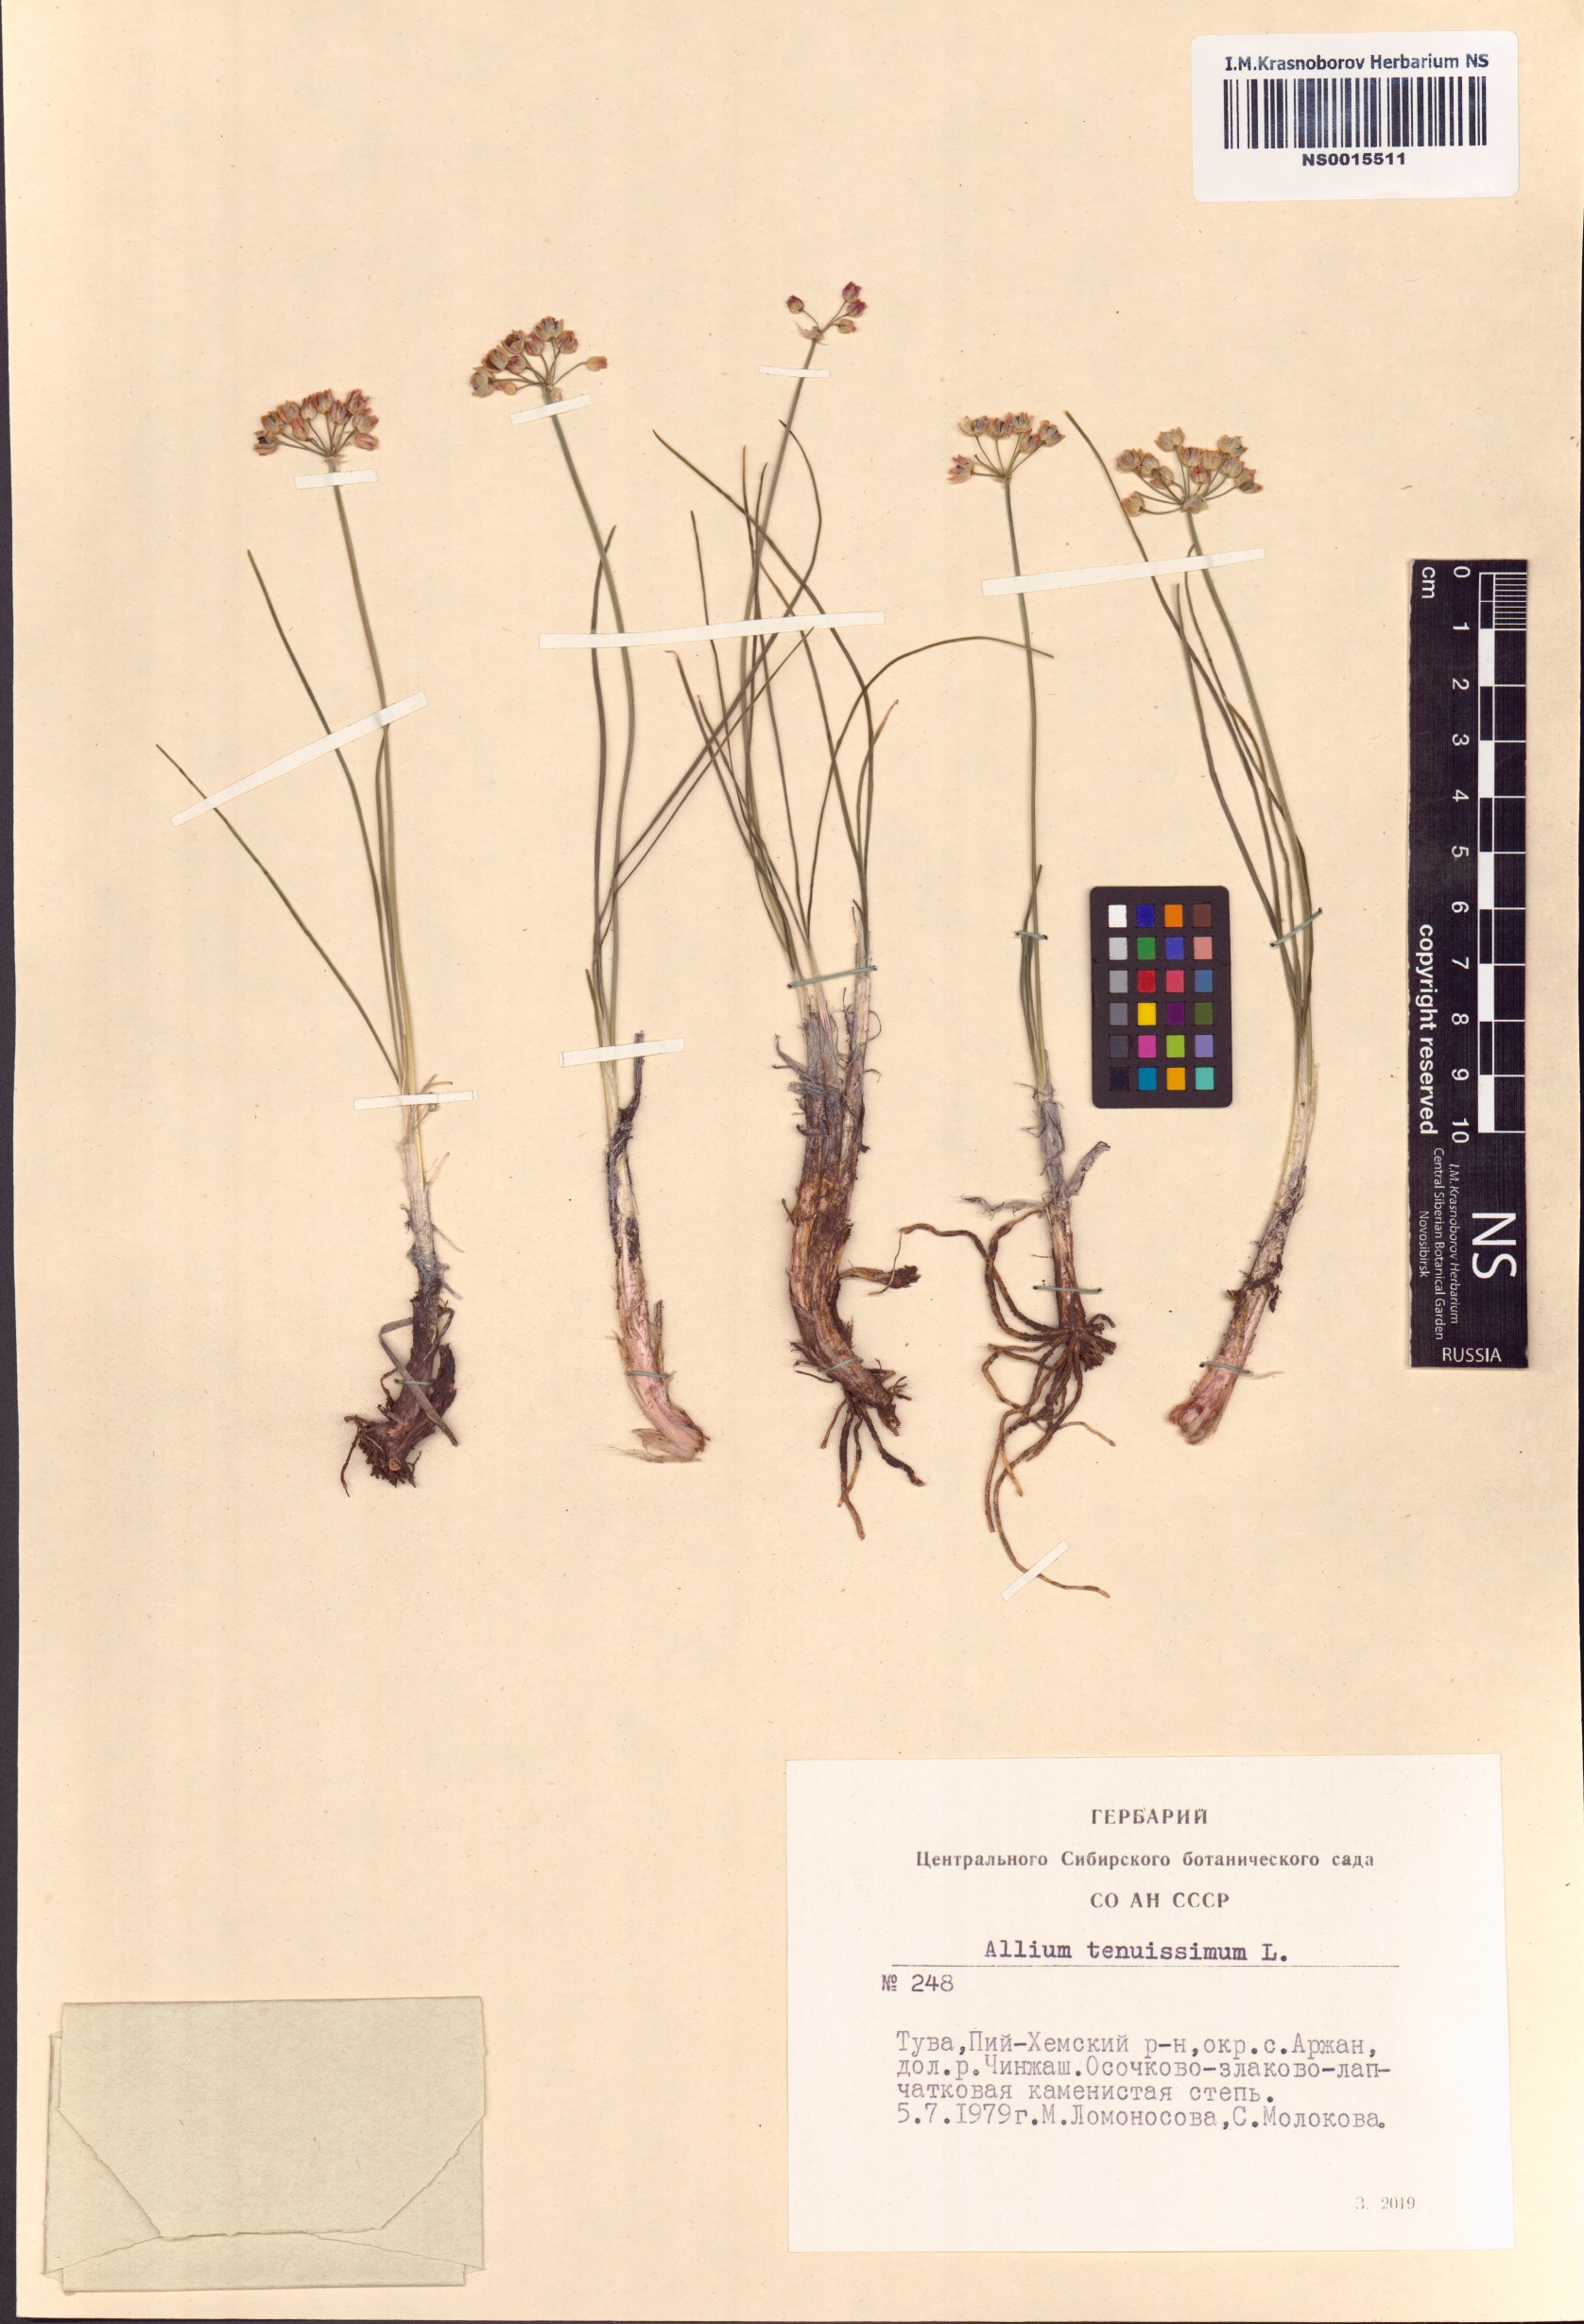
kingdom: Plantae
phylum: Tracheophyta
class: Liliopsida
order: Asparagales
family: Amaryllidaceae
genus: Allium
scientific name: Allium tenuissimum
